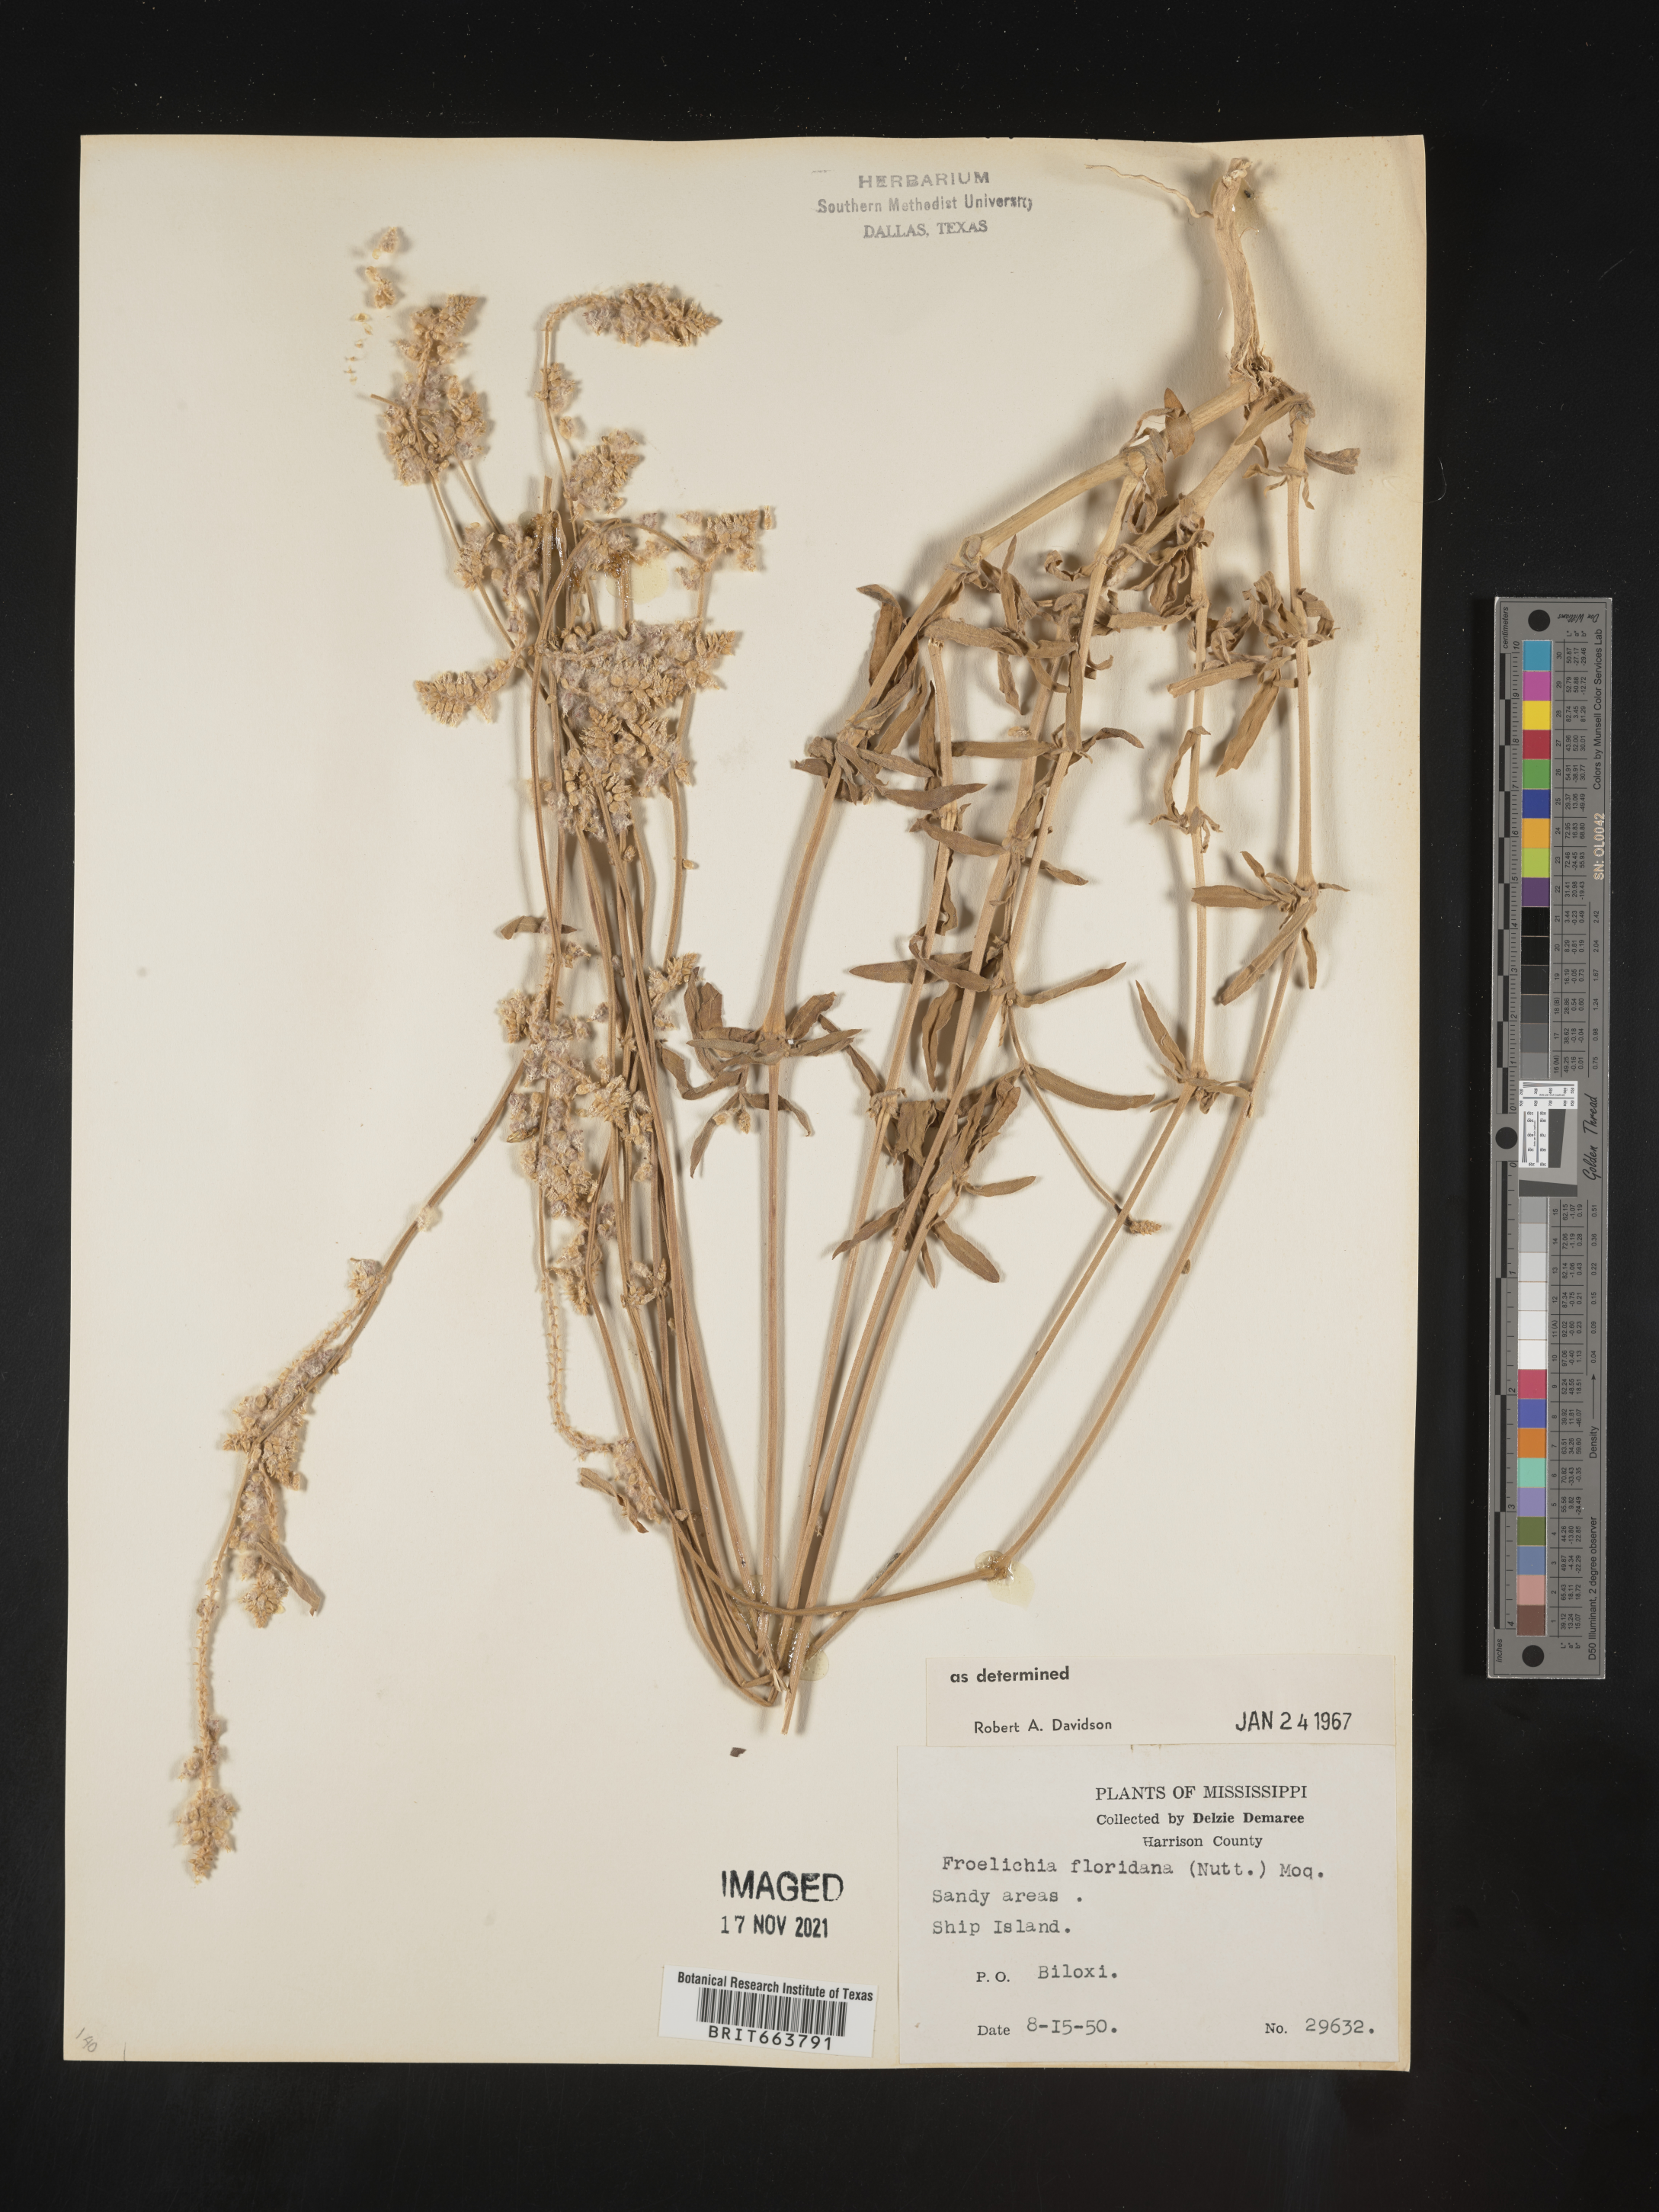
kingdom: Plantae
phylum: Tracheophyta
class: Magnoliopsida
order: Caryophyllales
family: Amaranthaceae
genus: Froelichia
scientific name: Froelichia floridana
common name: Florida snake-cotton
